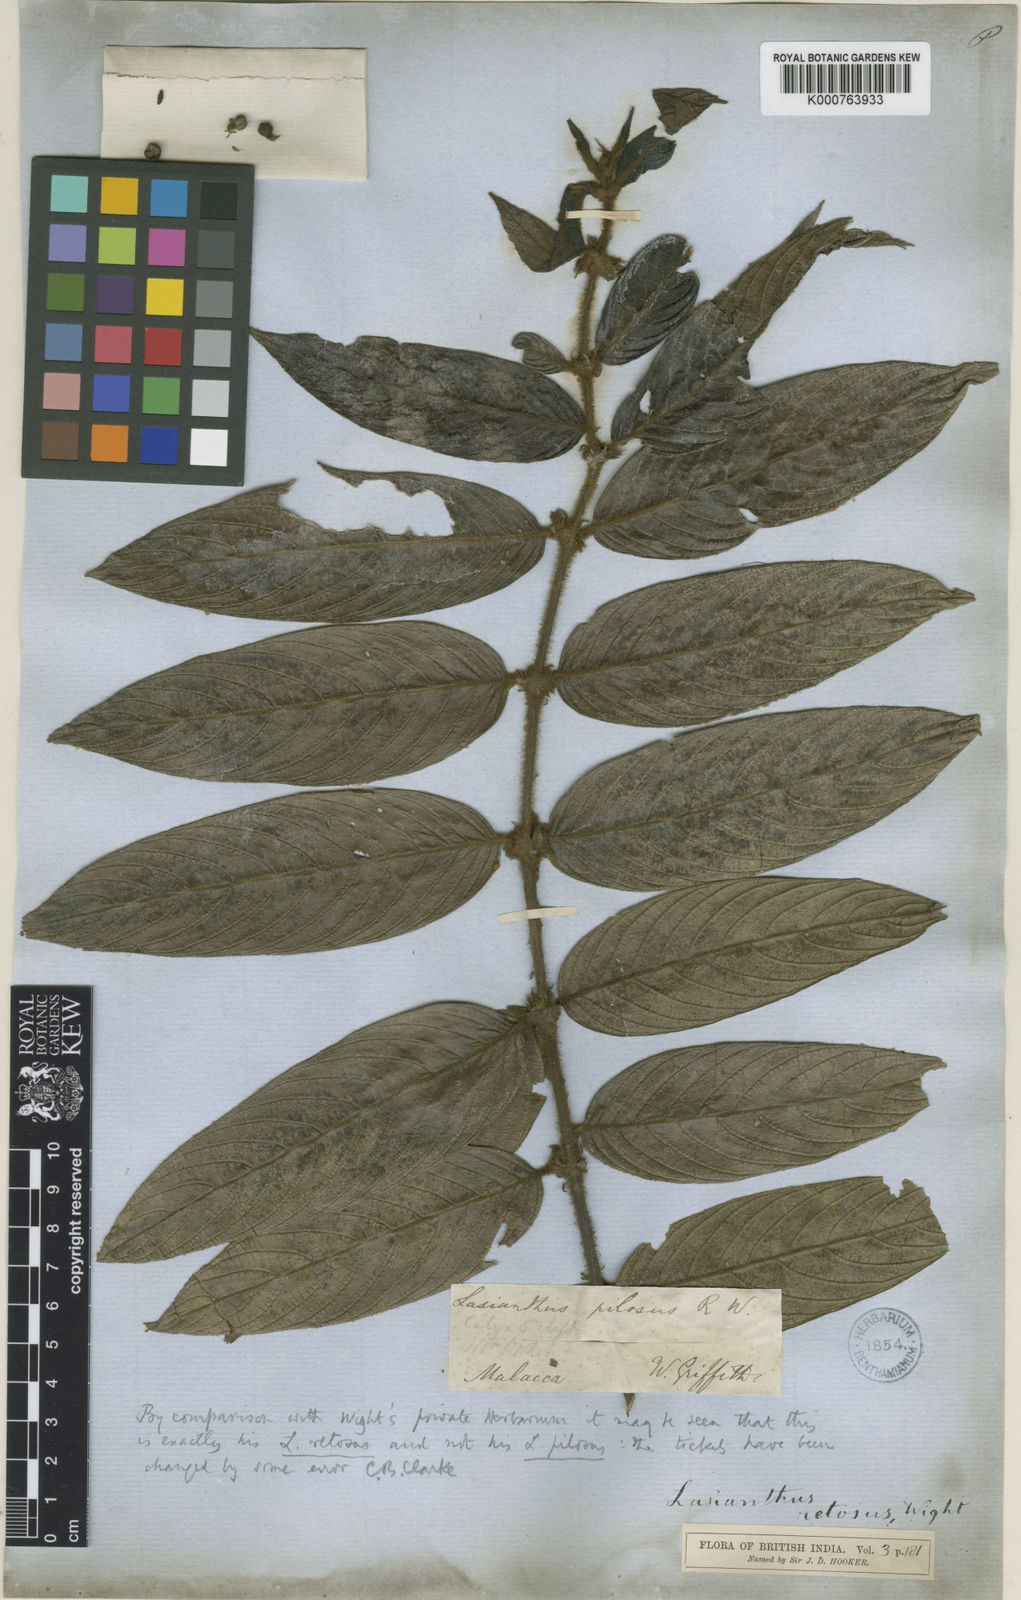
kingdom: Plantae
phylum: Tracheophyta
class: Magnoliopsida
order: Gentianales
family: Rubiaceae
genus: Lasianthus
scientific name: Lasianthus pilosus
